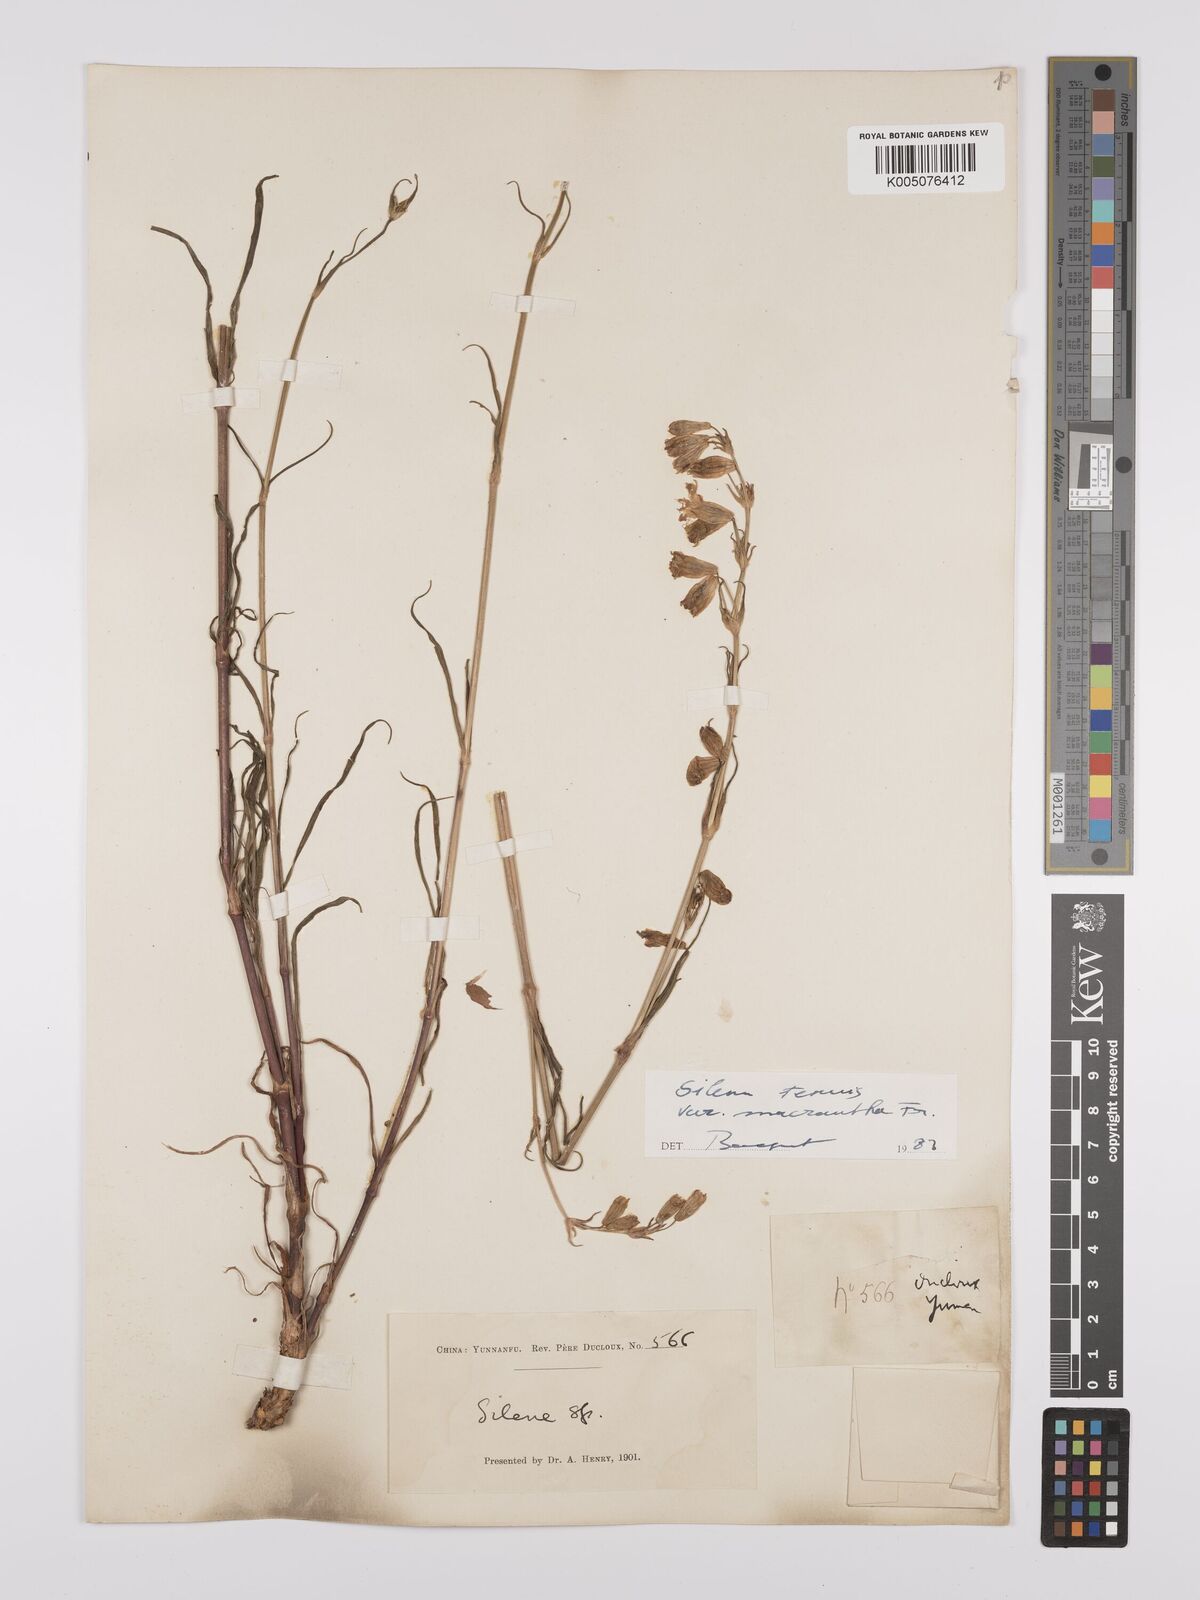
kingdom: Plantae
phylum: Tracheophyta
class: Magnoliopsida
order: Caryophyllales
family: Caryophyllaceae
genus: Silene
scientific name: Silene
